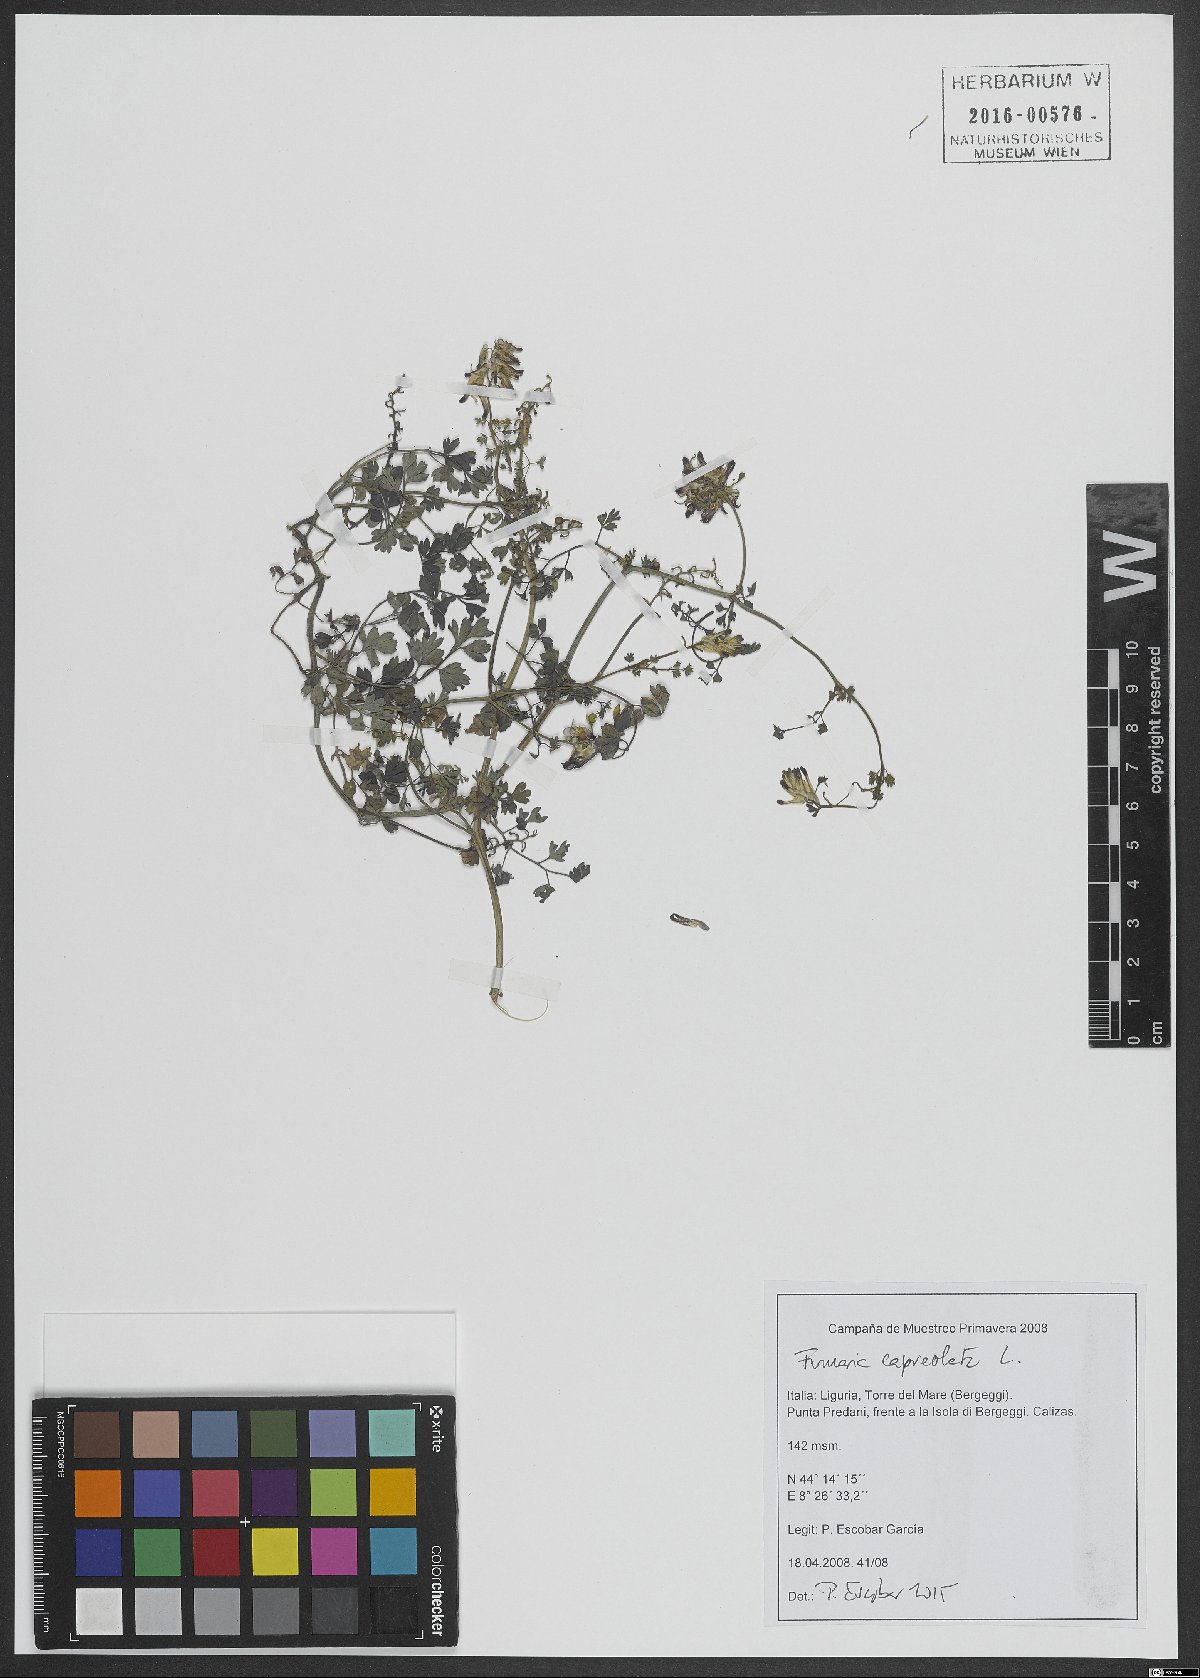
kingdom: Plantae
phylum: Tracheophyta
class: Magnoliopsida
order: Ranunculales
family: Papaveraceae
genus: Fumaria
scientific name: Fumaria capreolata
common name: White ramping-fumitory
